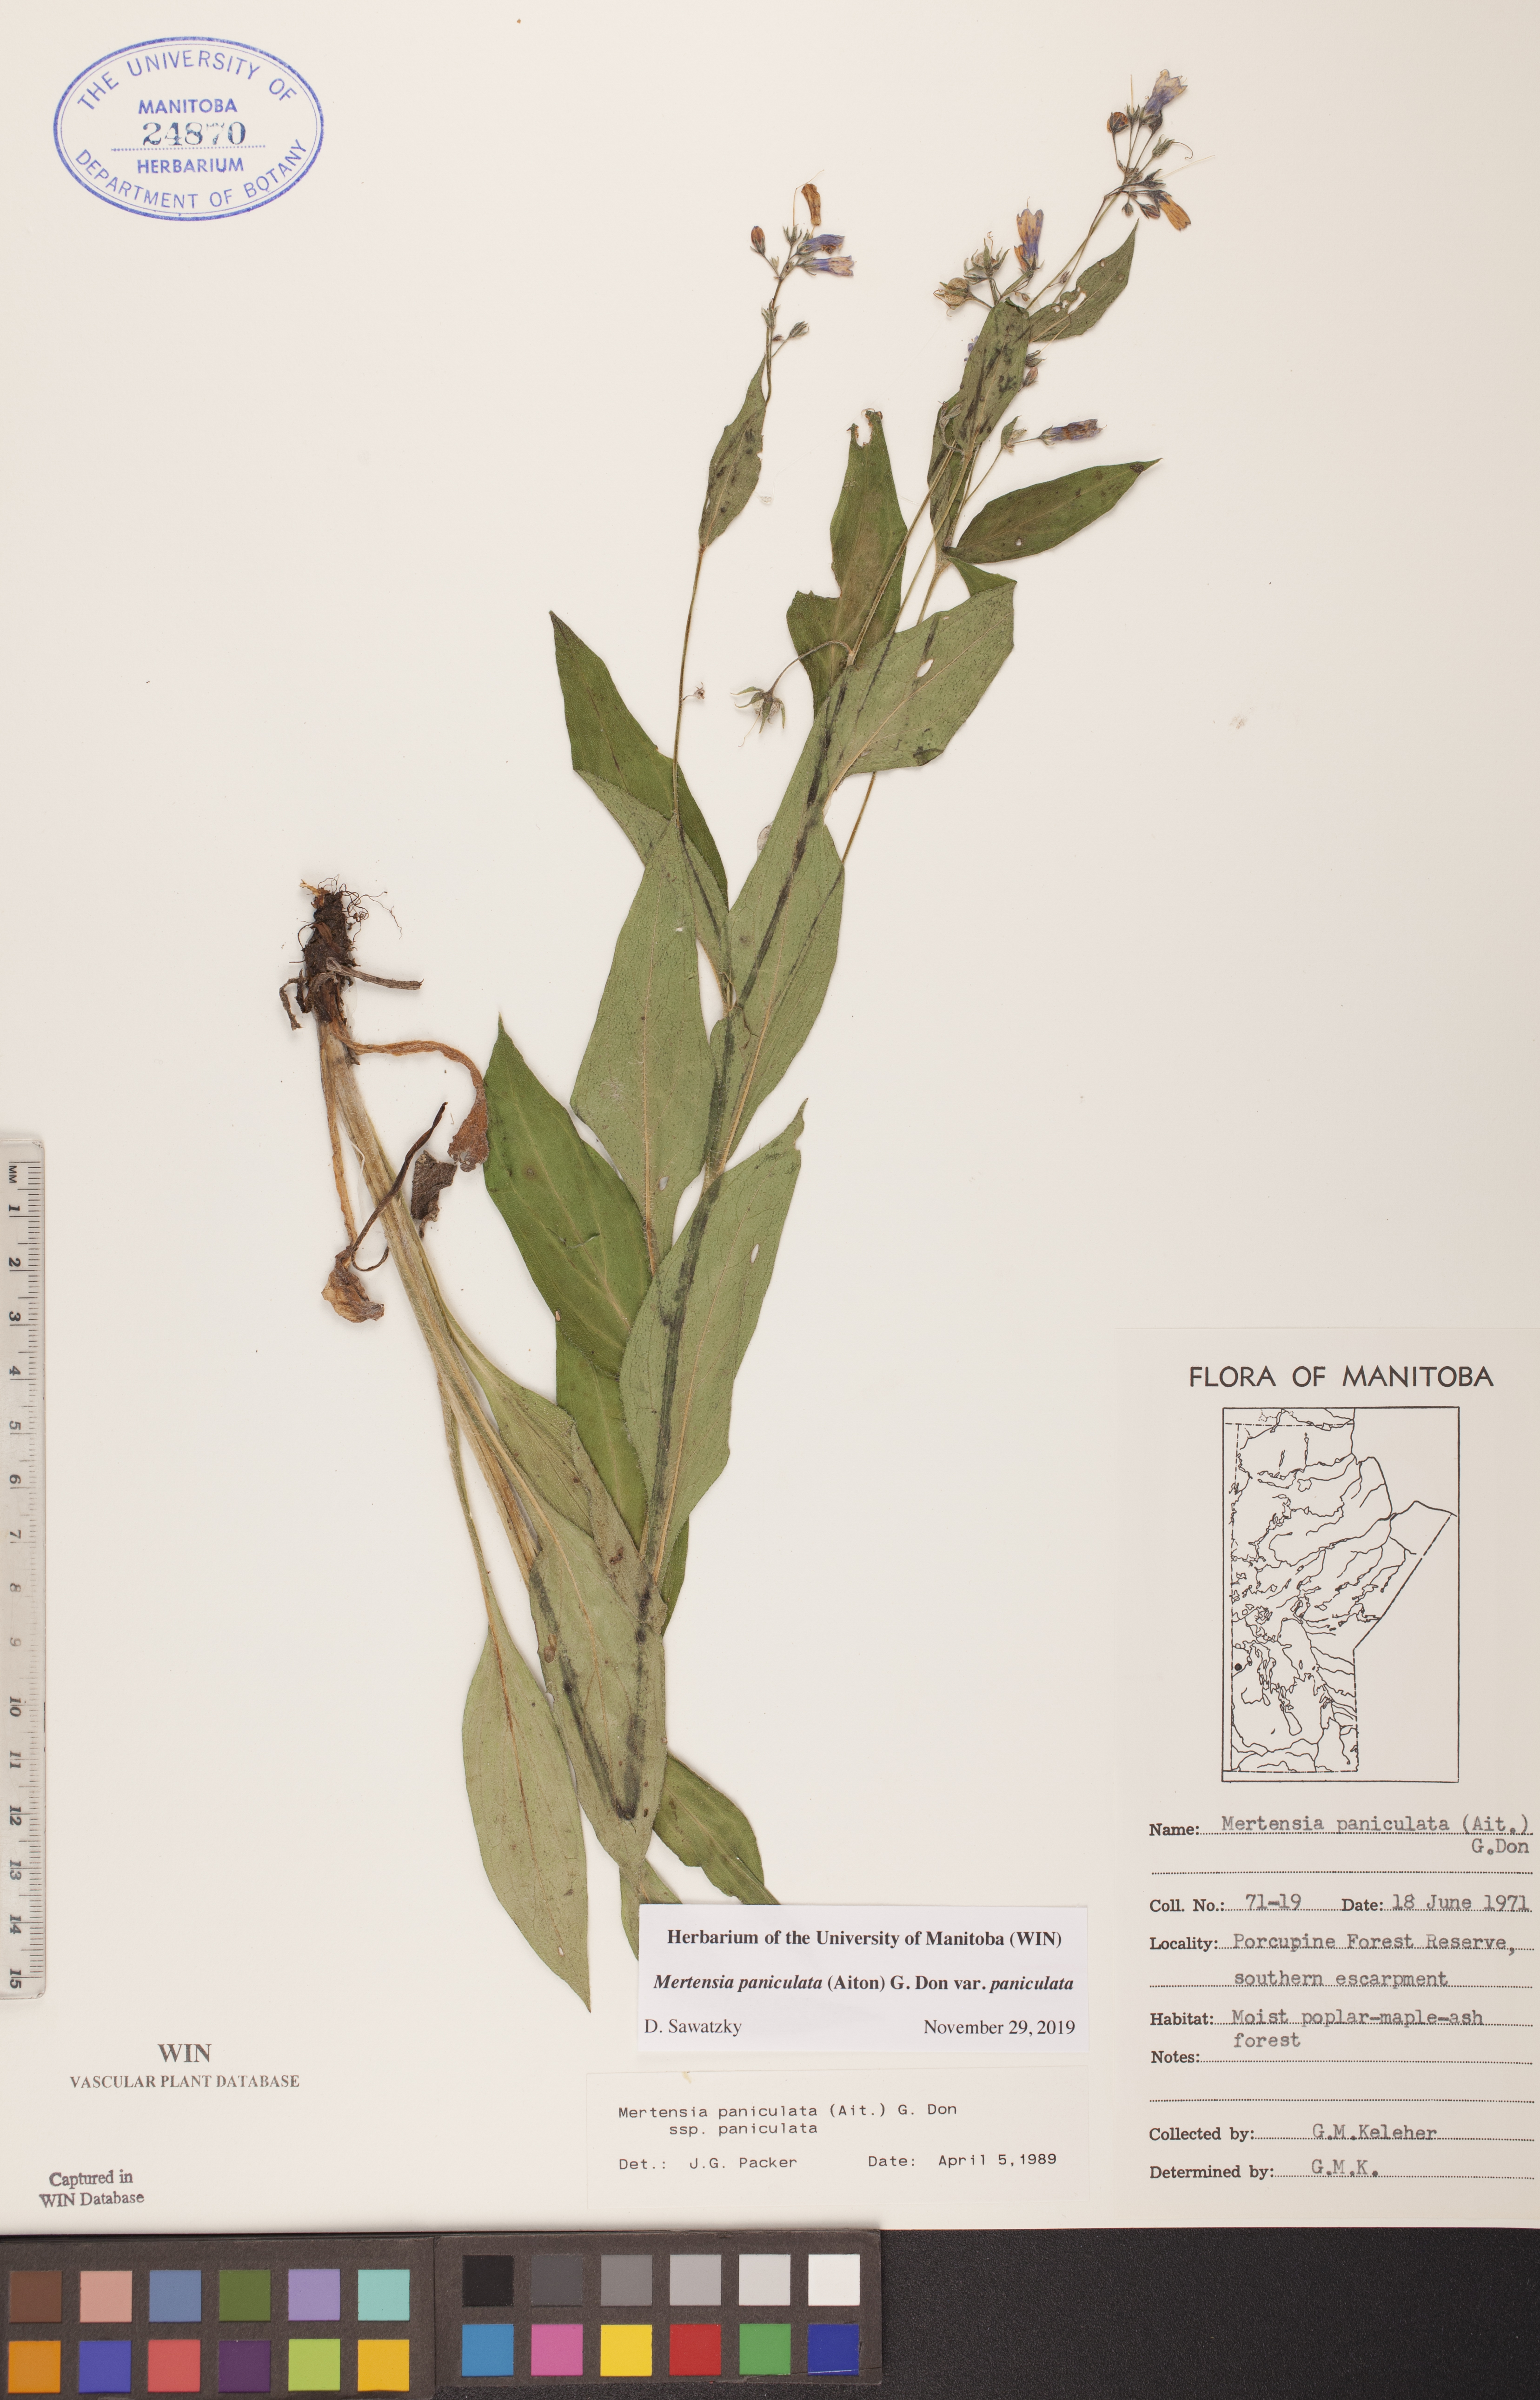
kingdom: Plantae
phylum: Tracheophyta
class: Magnoliopsida
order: Boraginales
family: Boraginaceae
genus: Mertensia
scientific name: Mertensia paniculata
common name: Panicled bluebells
